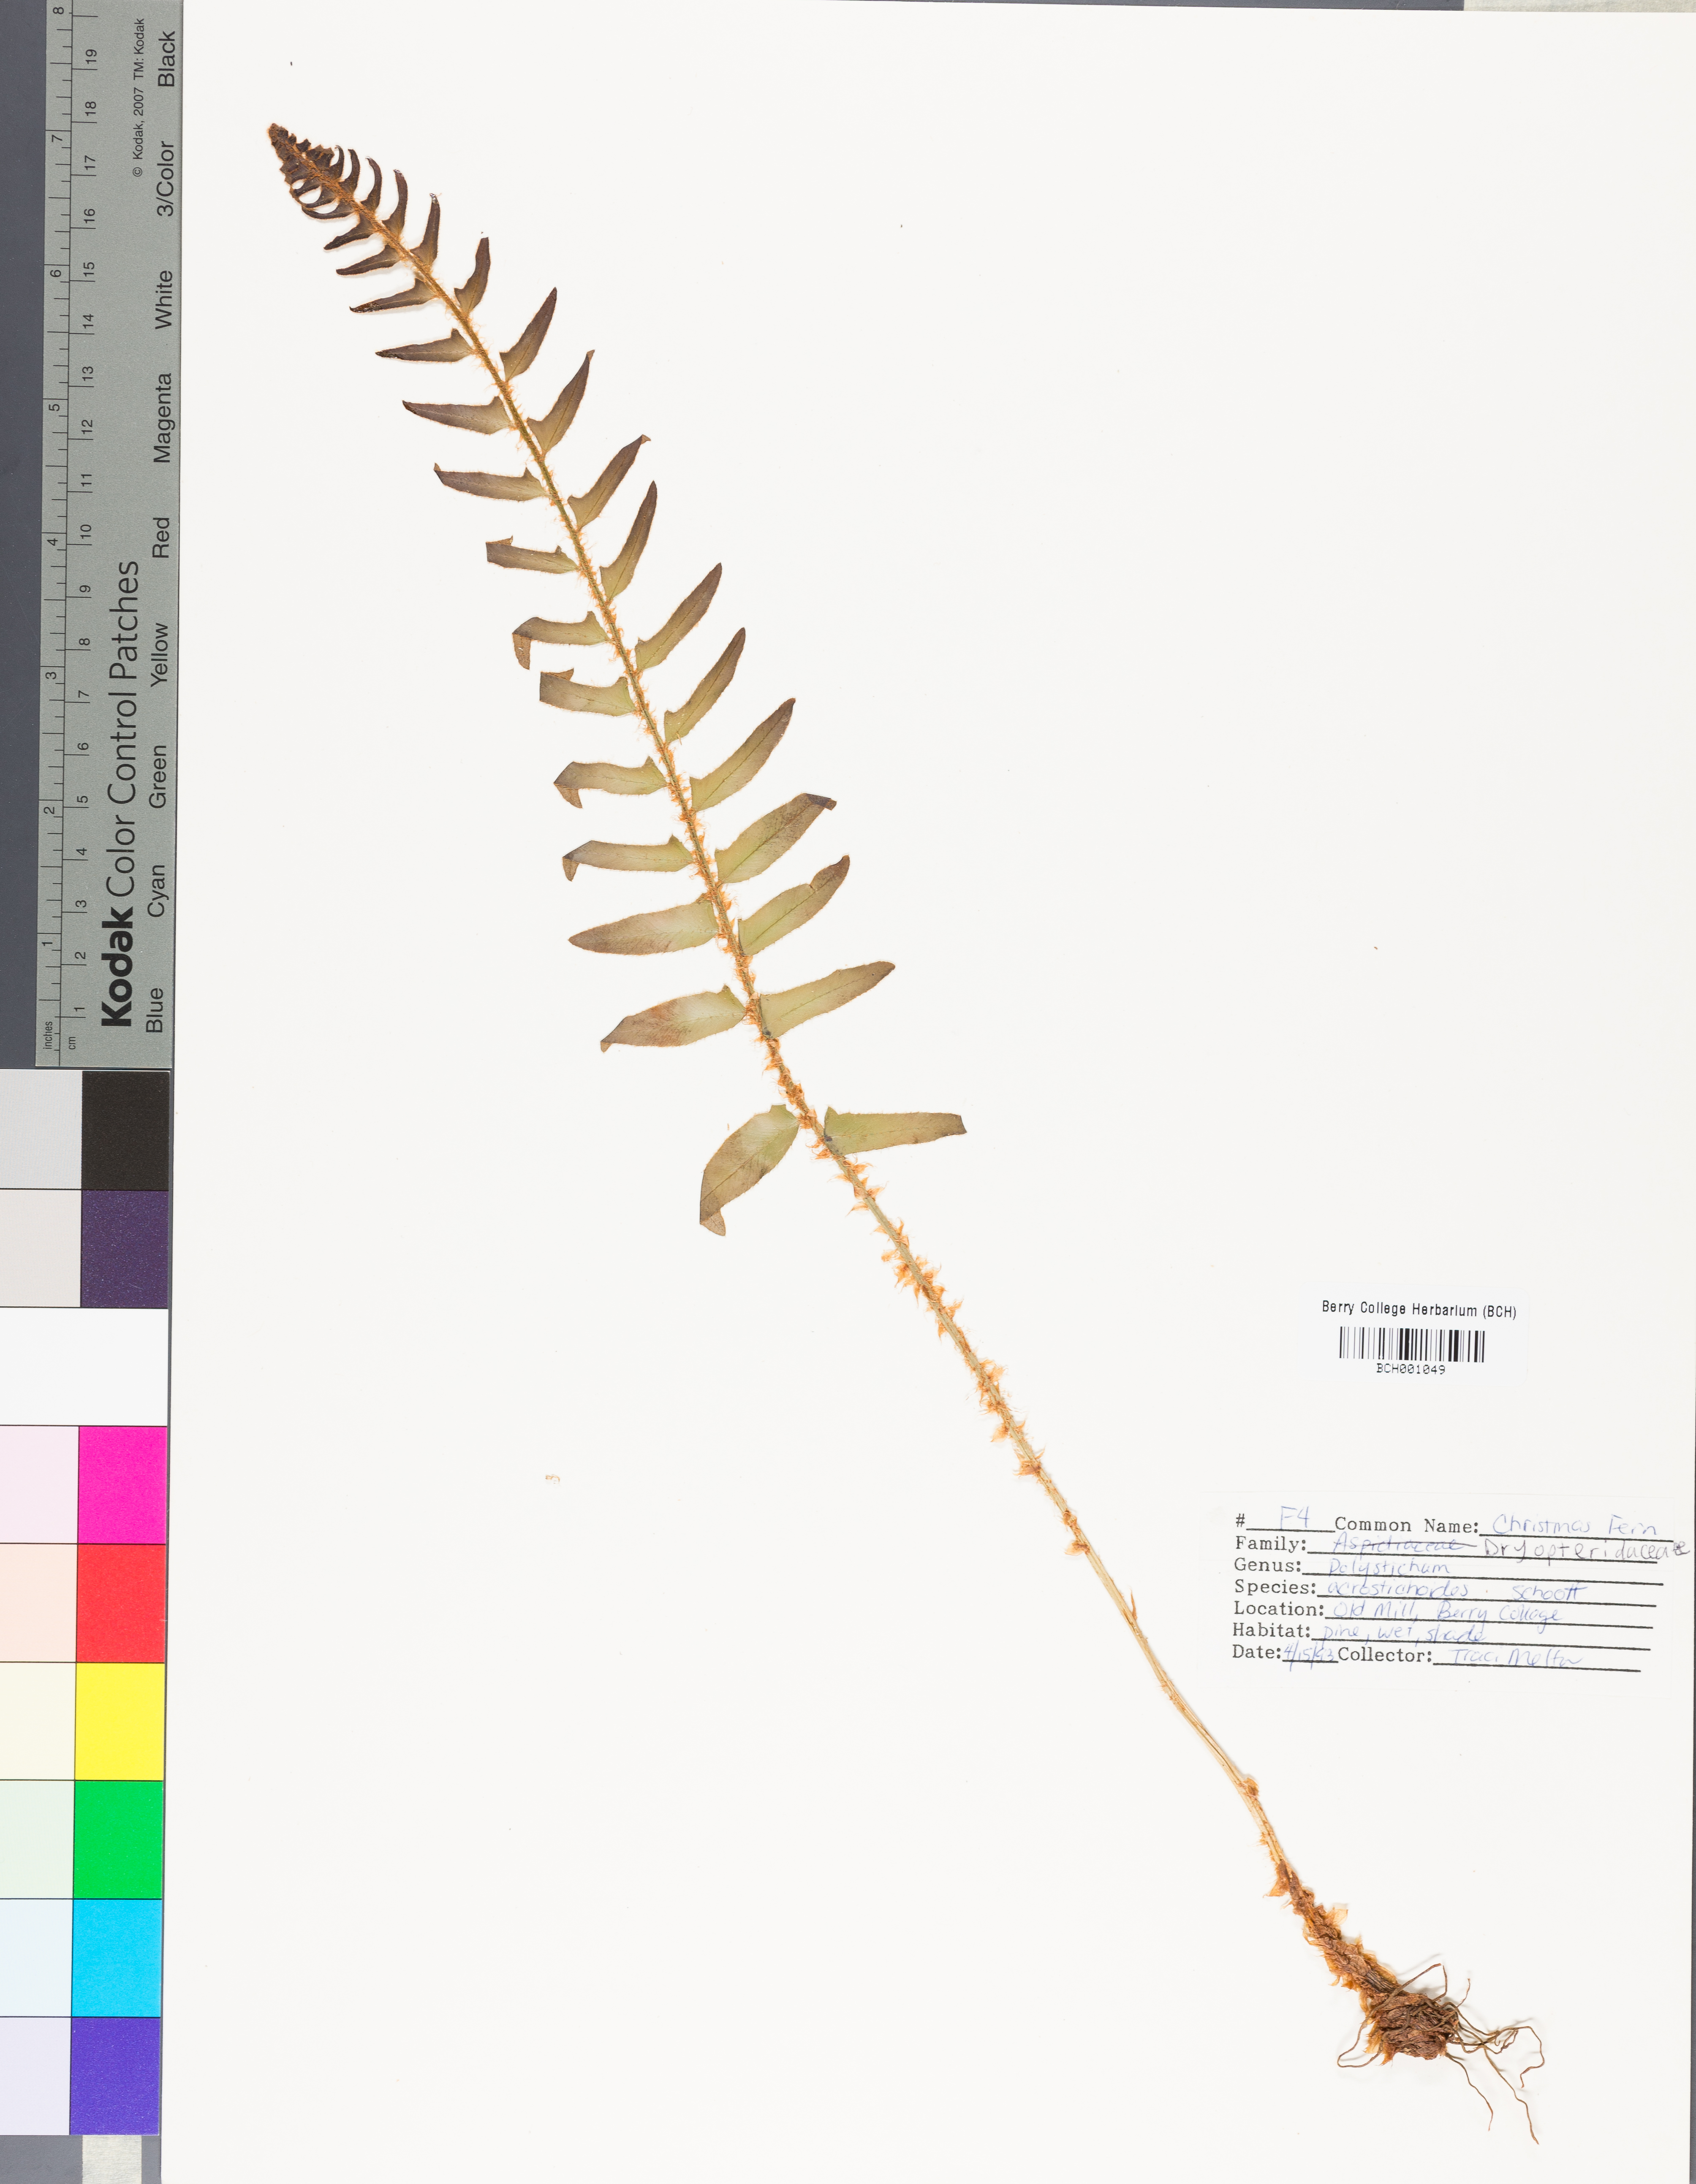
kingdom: Plantae
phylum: Tracheophyta
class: Polypodiopsida
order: Polypodiales
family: Dryopteridaceae
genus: Polystichum
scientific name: Polystichum acrostichoides
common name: Christmas fern
